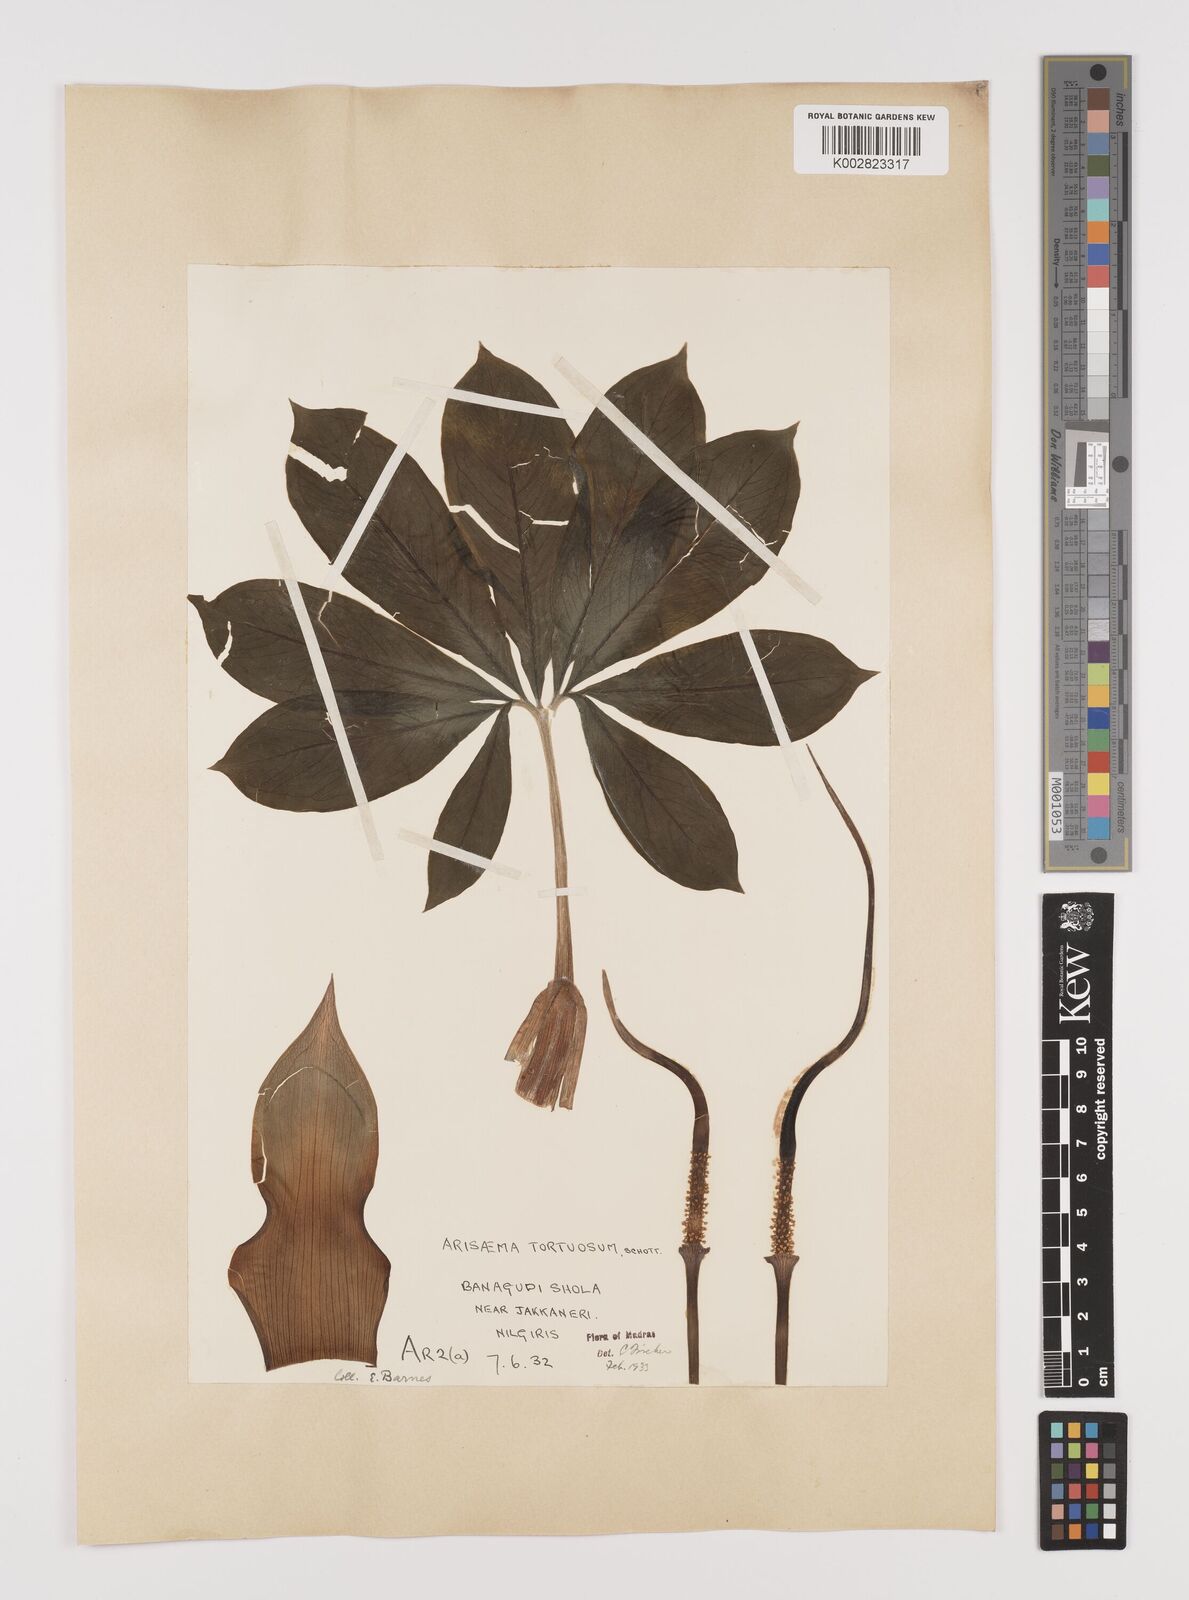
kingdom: Plantae
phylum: Tracheophyta
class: Liliopsida
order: Alismatales
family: Araceae
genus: Arisaema
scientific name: Arisaema tortuosum
